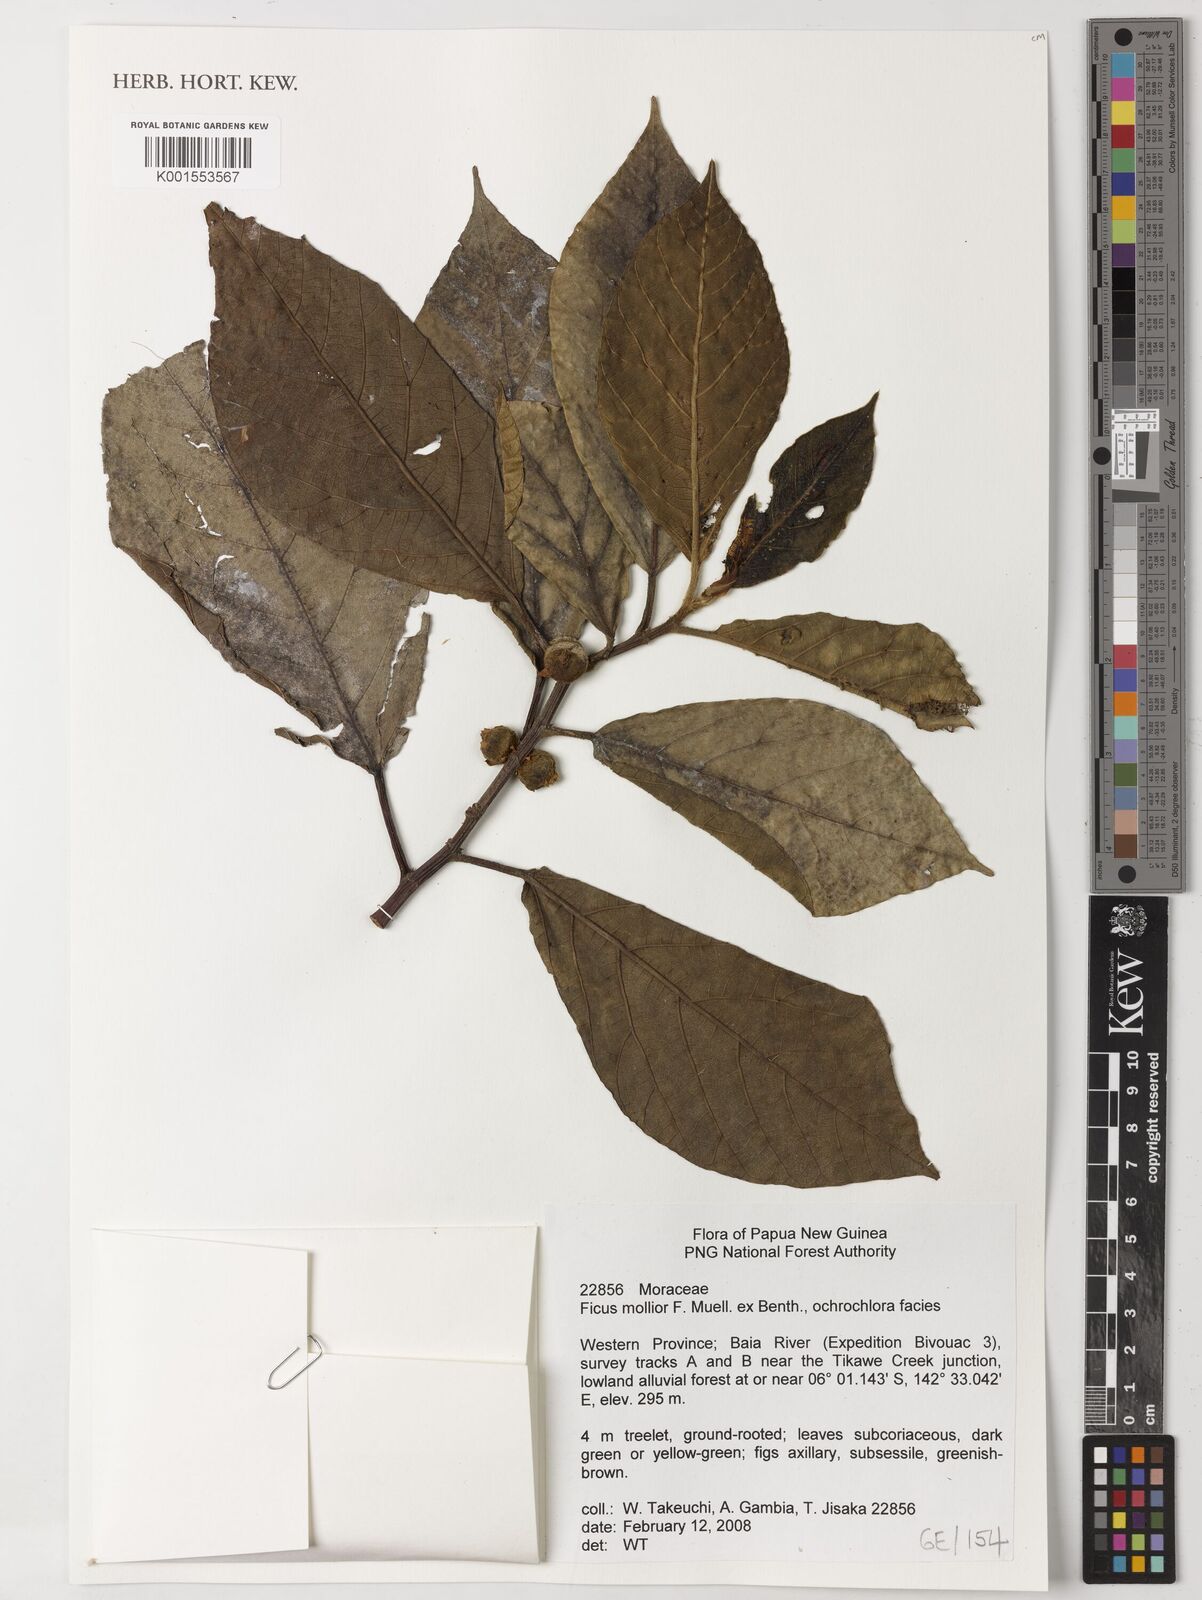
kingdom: Plantae
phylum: Tracheophyta
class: Magnoliopsida
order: Rosales
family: Moraceae
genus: Ficus
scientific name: Ficus mollior
